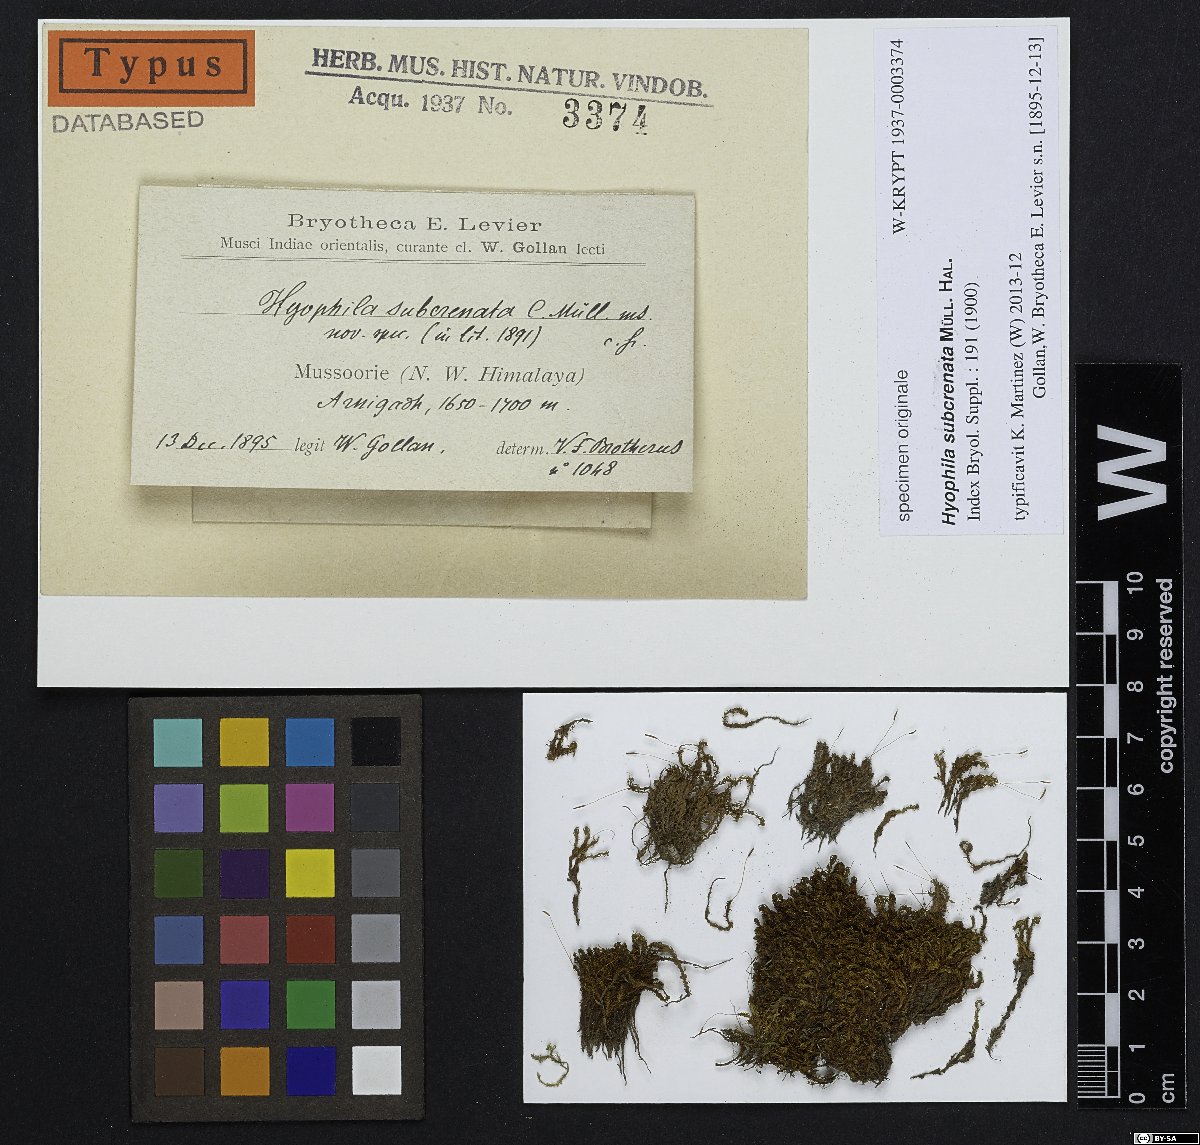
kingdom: Plantae
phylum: Bryophyta
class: Bryopsida
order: Pottiales
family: Pottiaceae
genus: Hyophila
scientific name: Hyophila involuta
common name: Hyophila moss
